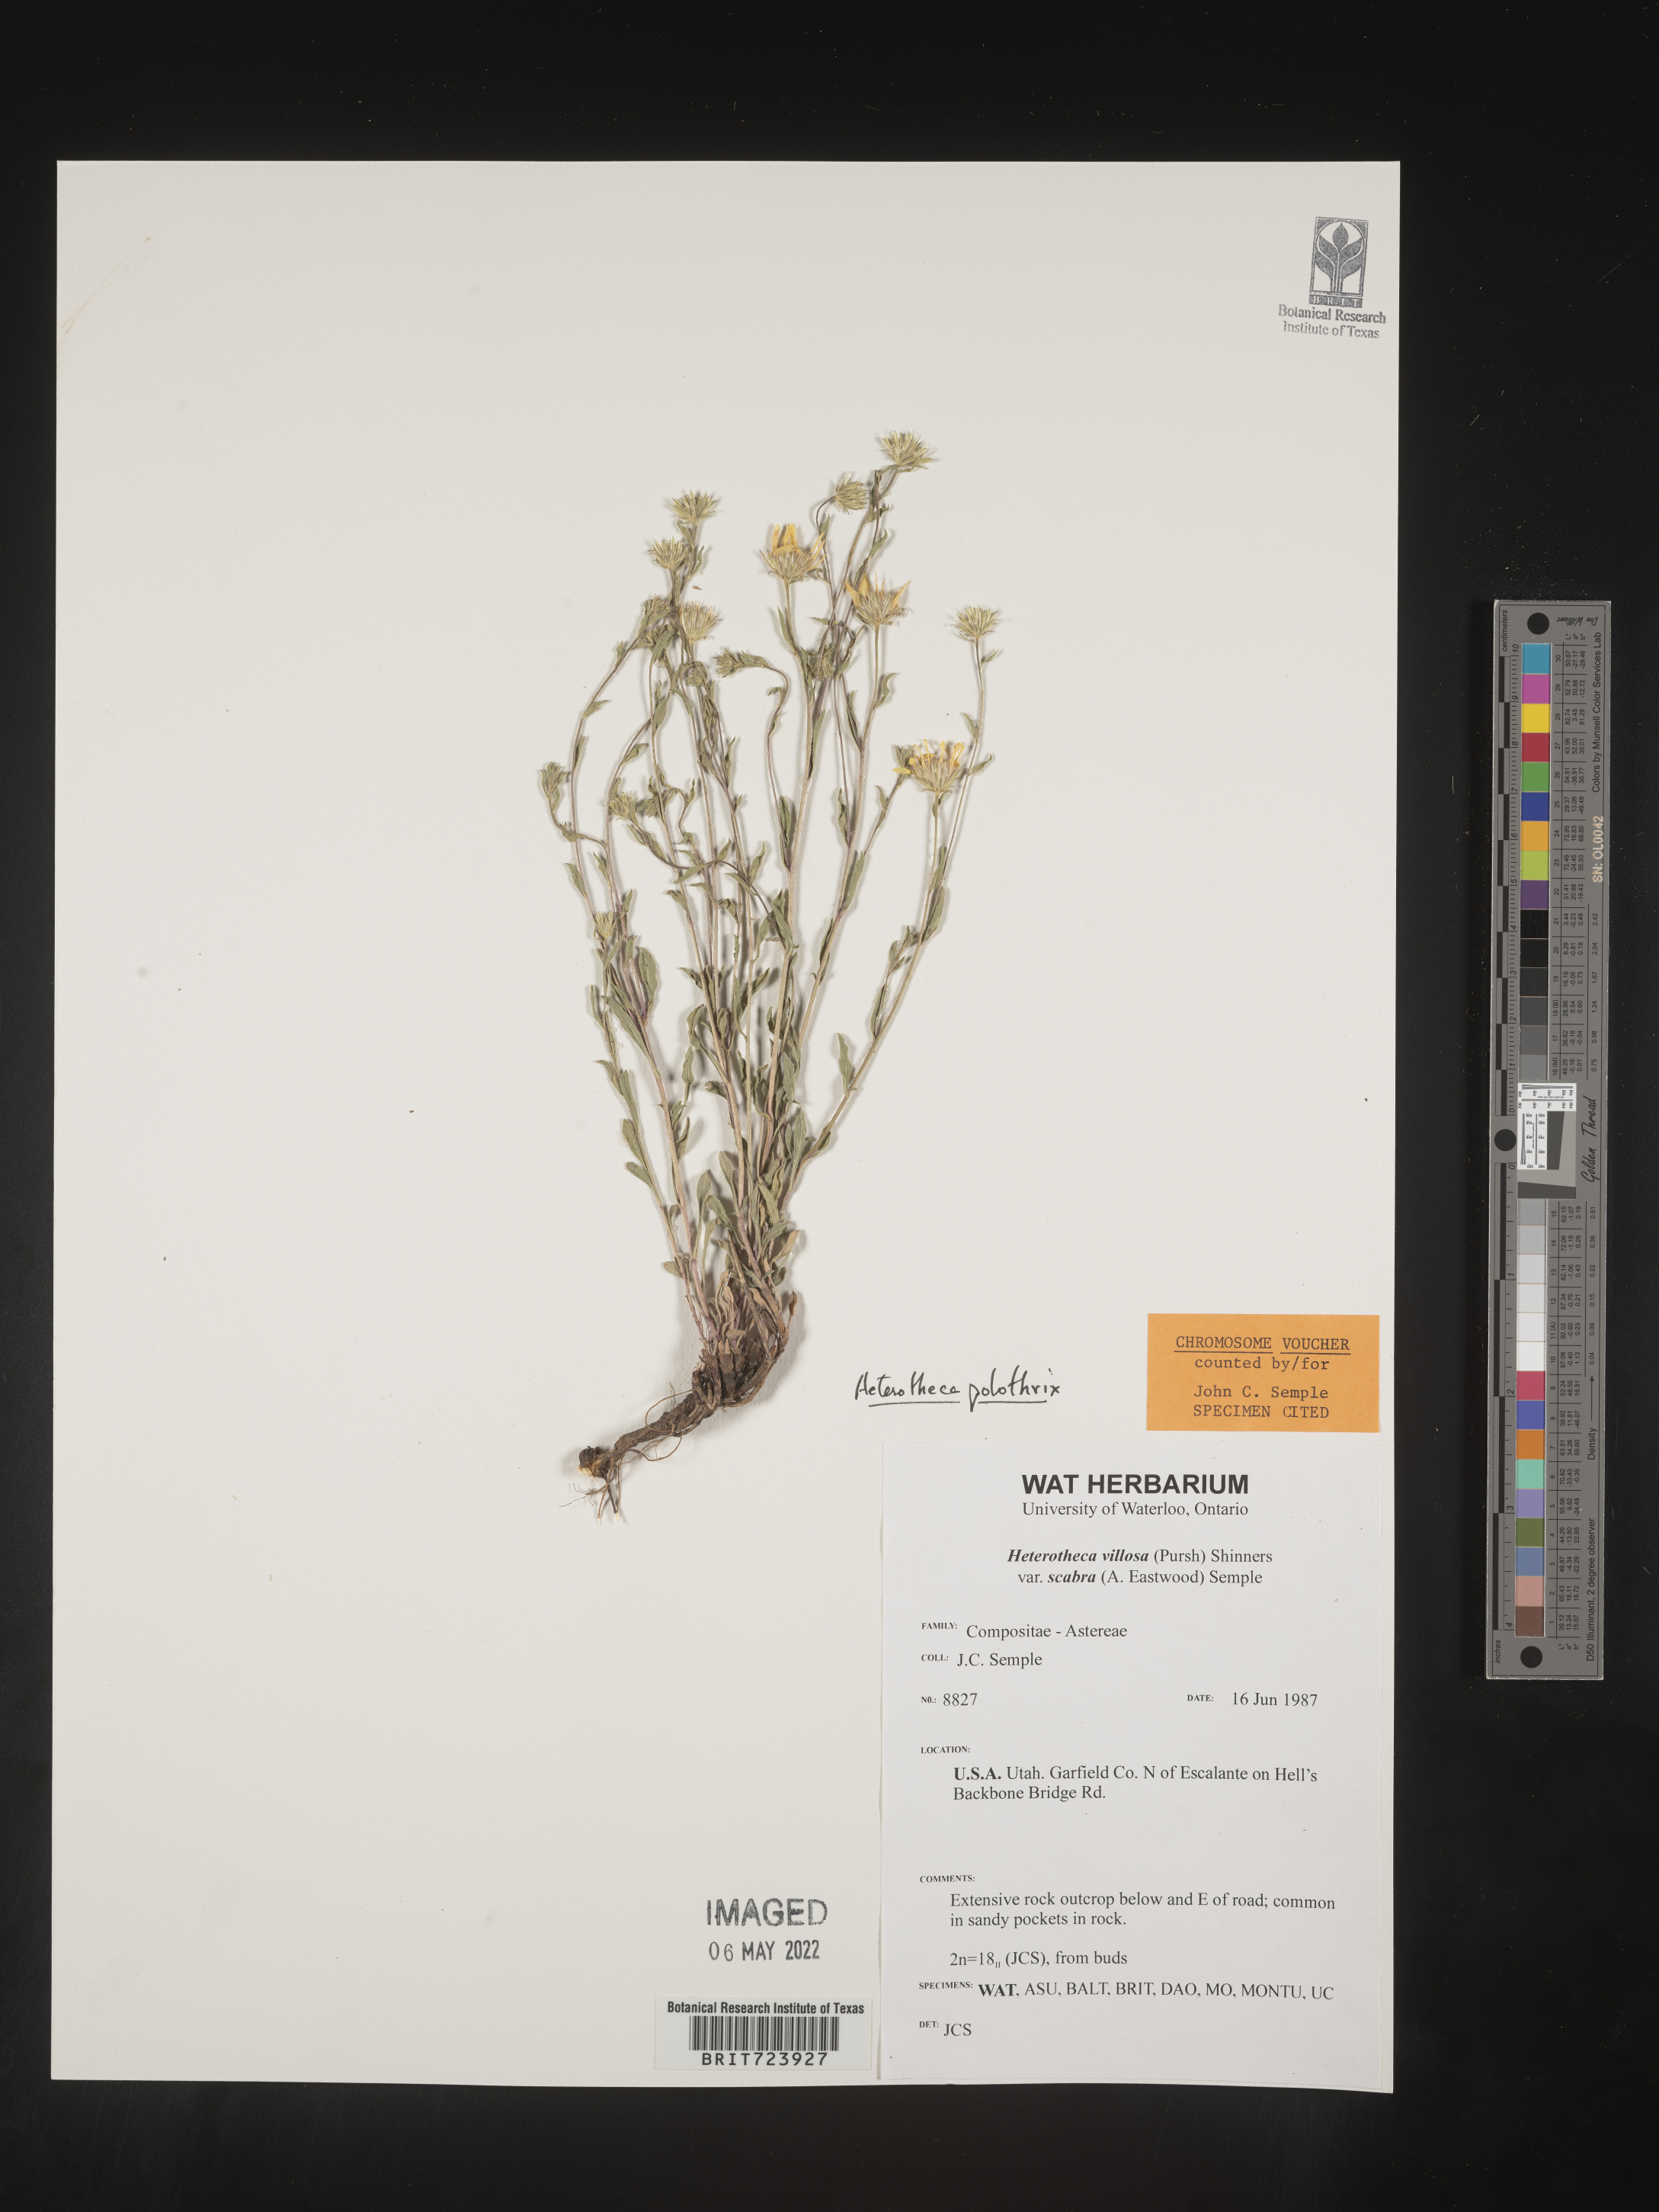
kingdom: Plantae
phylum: Tracheophyta
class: Magnoliopsida
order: Asterales
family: Asteraceae
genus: Heterotheca
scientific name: Heterotheca polothrix
